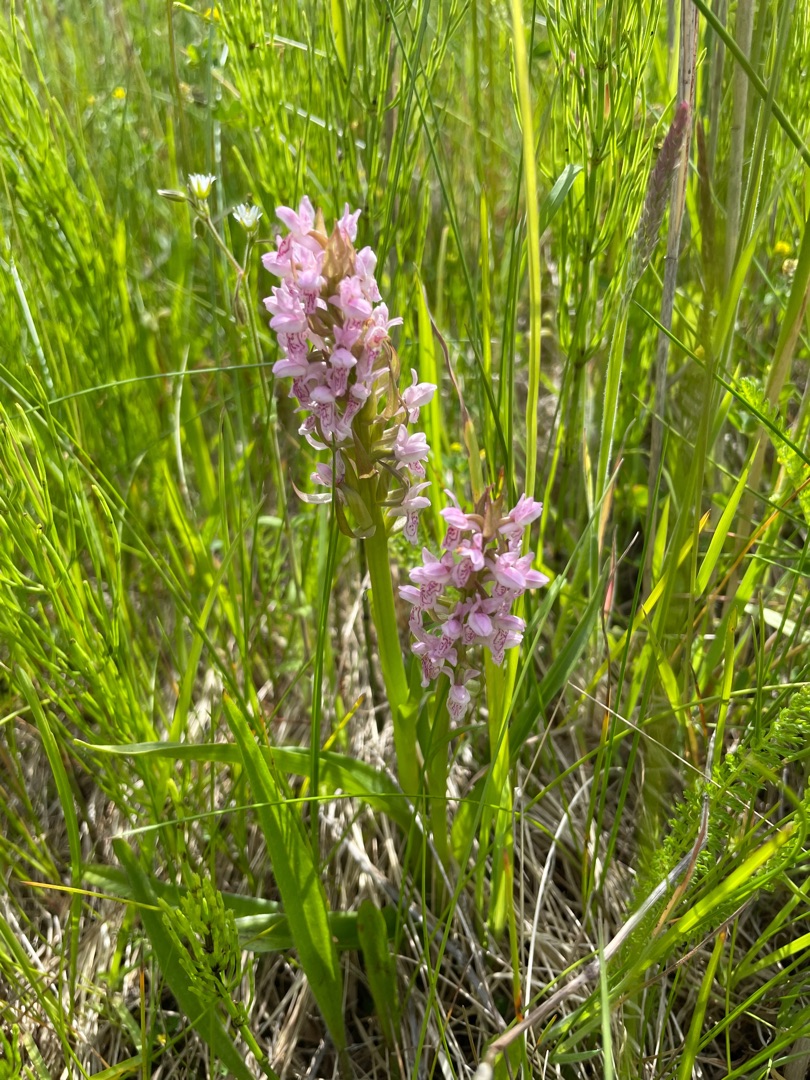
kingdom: Plantae
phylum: Tracheophyta
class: Liliopsida
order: Asparagales
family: Orchidaceae
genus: Dactylorhiza
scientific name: Dactylorhiza incarnata
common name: Kødfarvet gøgeurt
